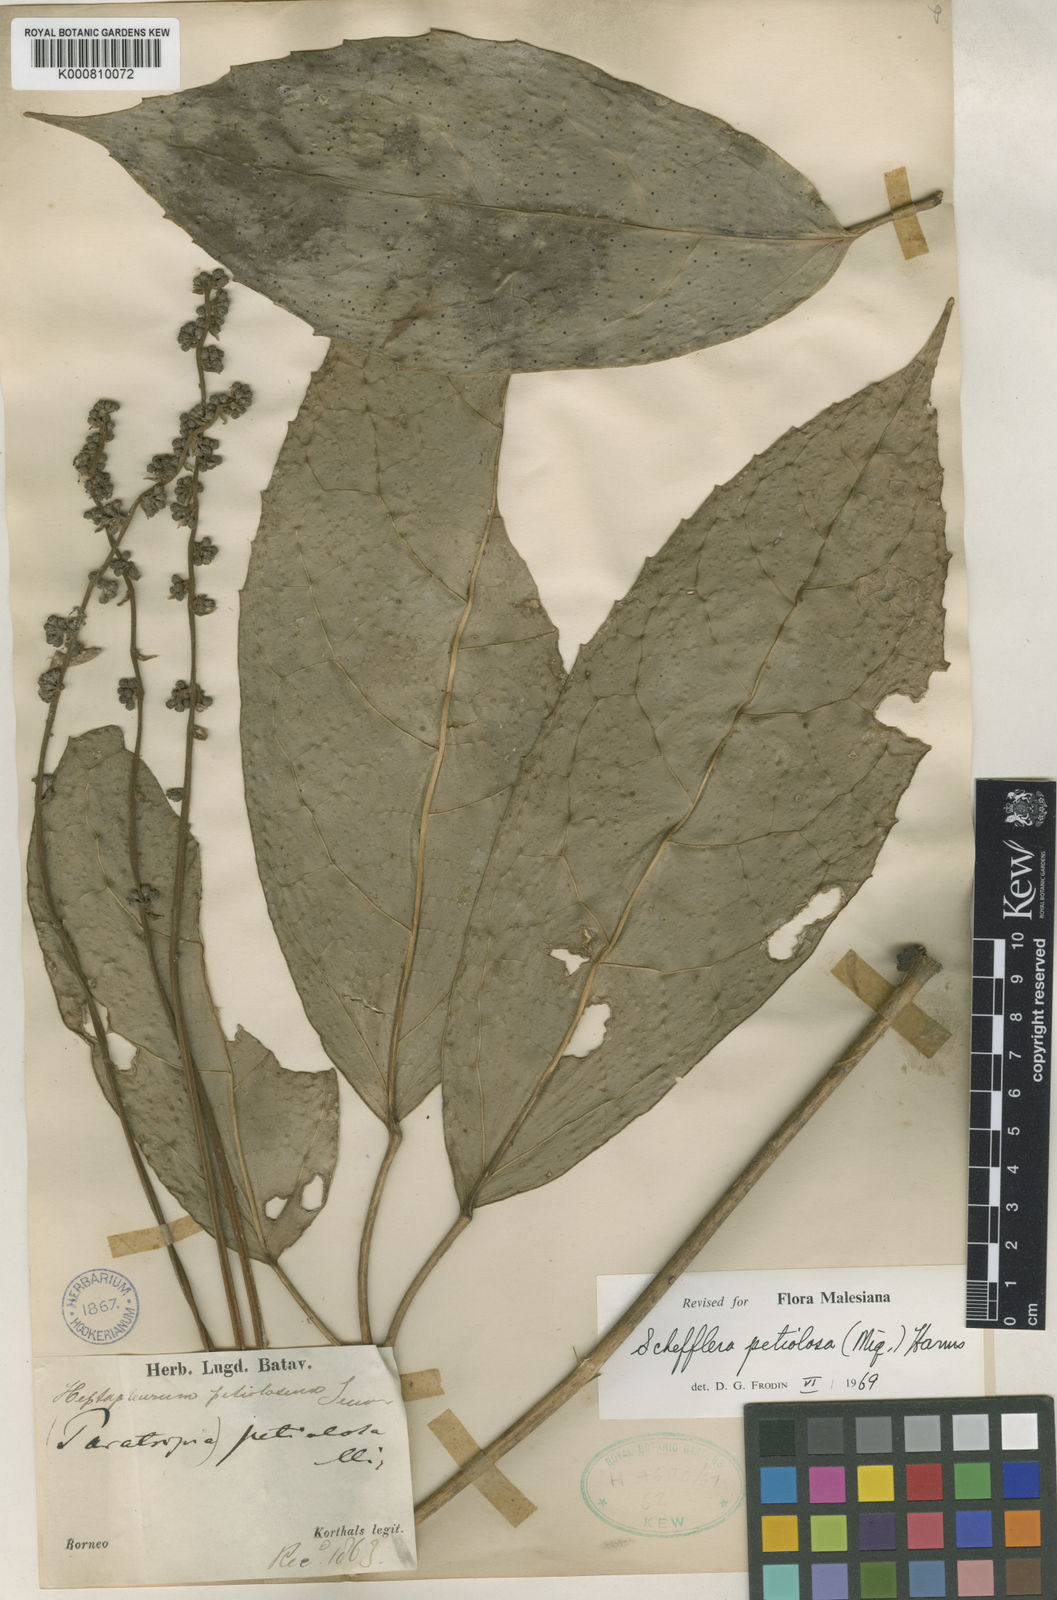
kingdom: Plantae
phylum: Tracheophyta
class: Magnoliopsida
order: Apiales
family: Araliaceae
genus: Heptapleurum
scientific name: Heptapleurum petiolosum
